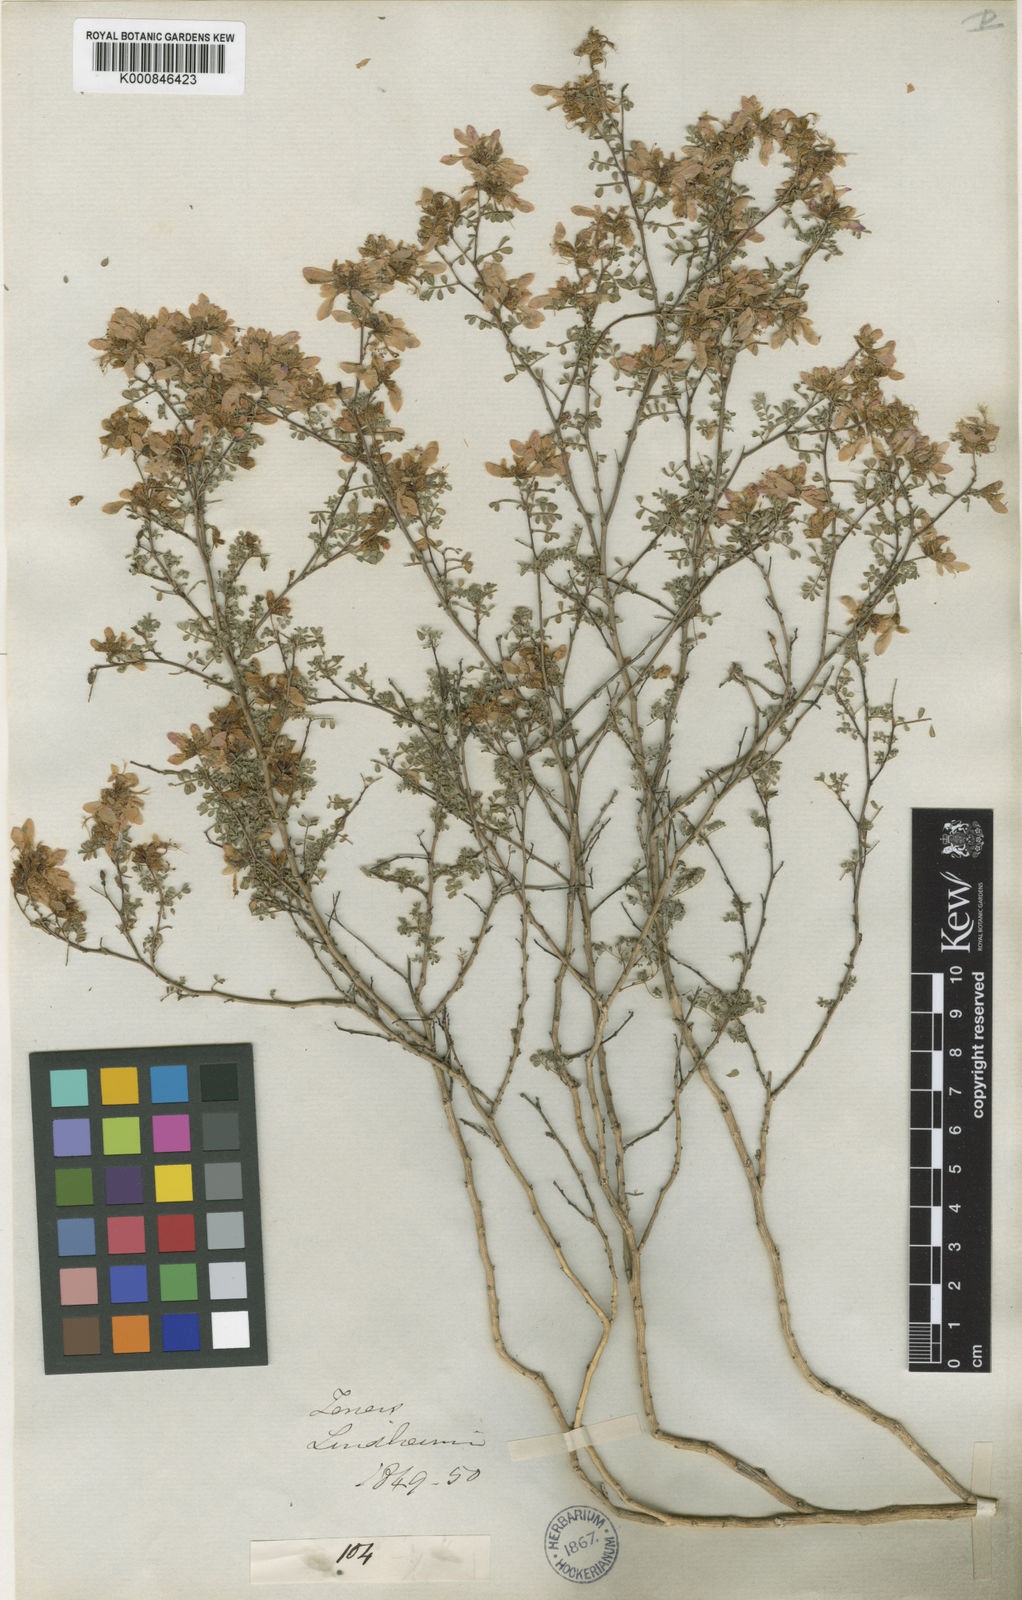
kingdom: Plantae
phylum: Tracheophyta
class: Magnoliopsida
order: Fabales
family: Fabaceae
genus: Dalea
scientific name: Dalea frutescens
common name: Black dalea
